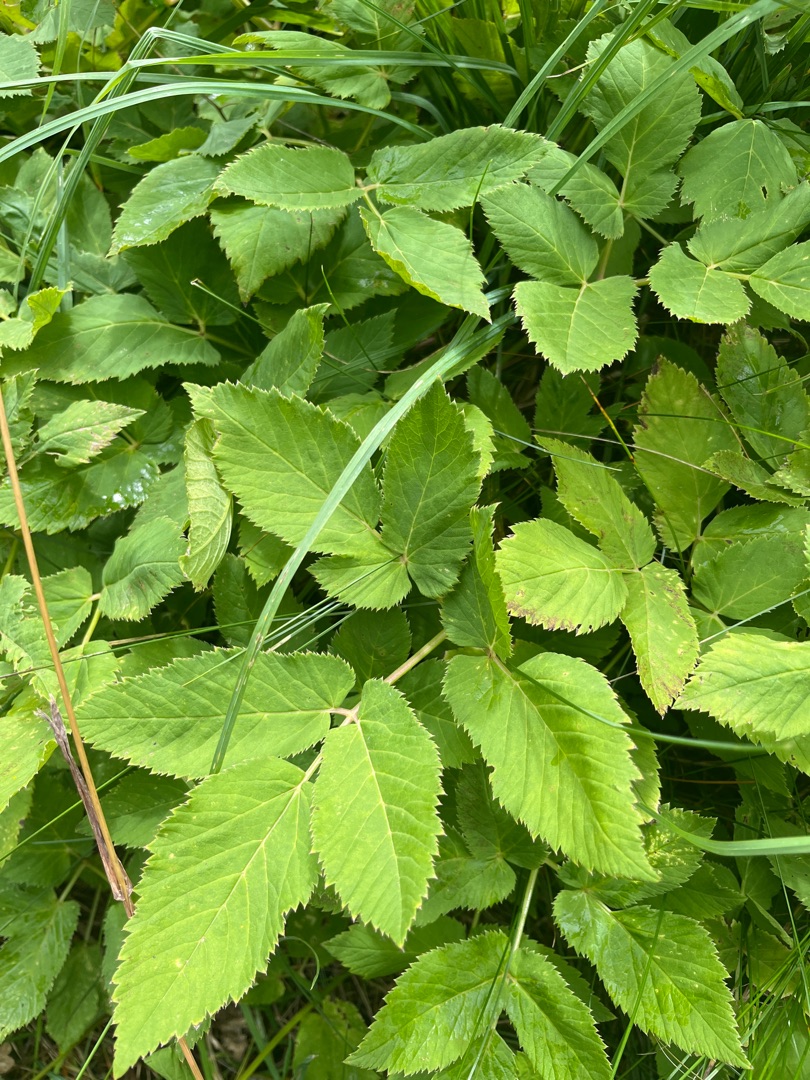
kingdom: Plantae
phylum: Tracheophyta
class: Magnoliopsida
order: Apiales
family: Apiaceae
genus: Aegopodium
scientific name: Aegopodium podagraria
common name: Skvalderkål
